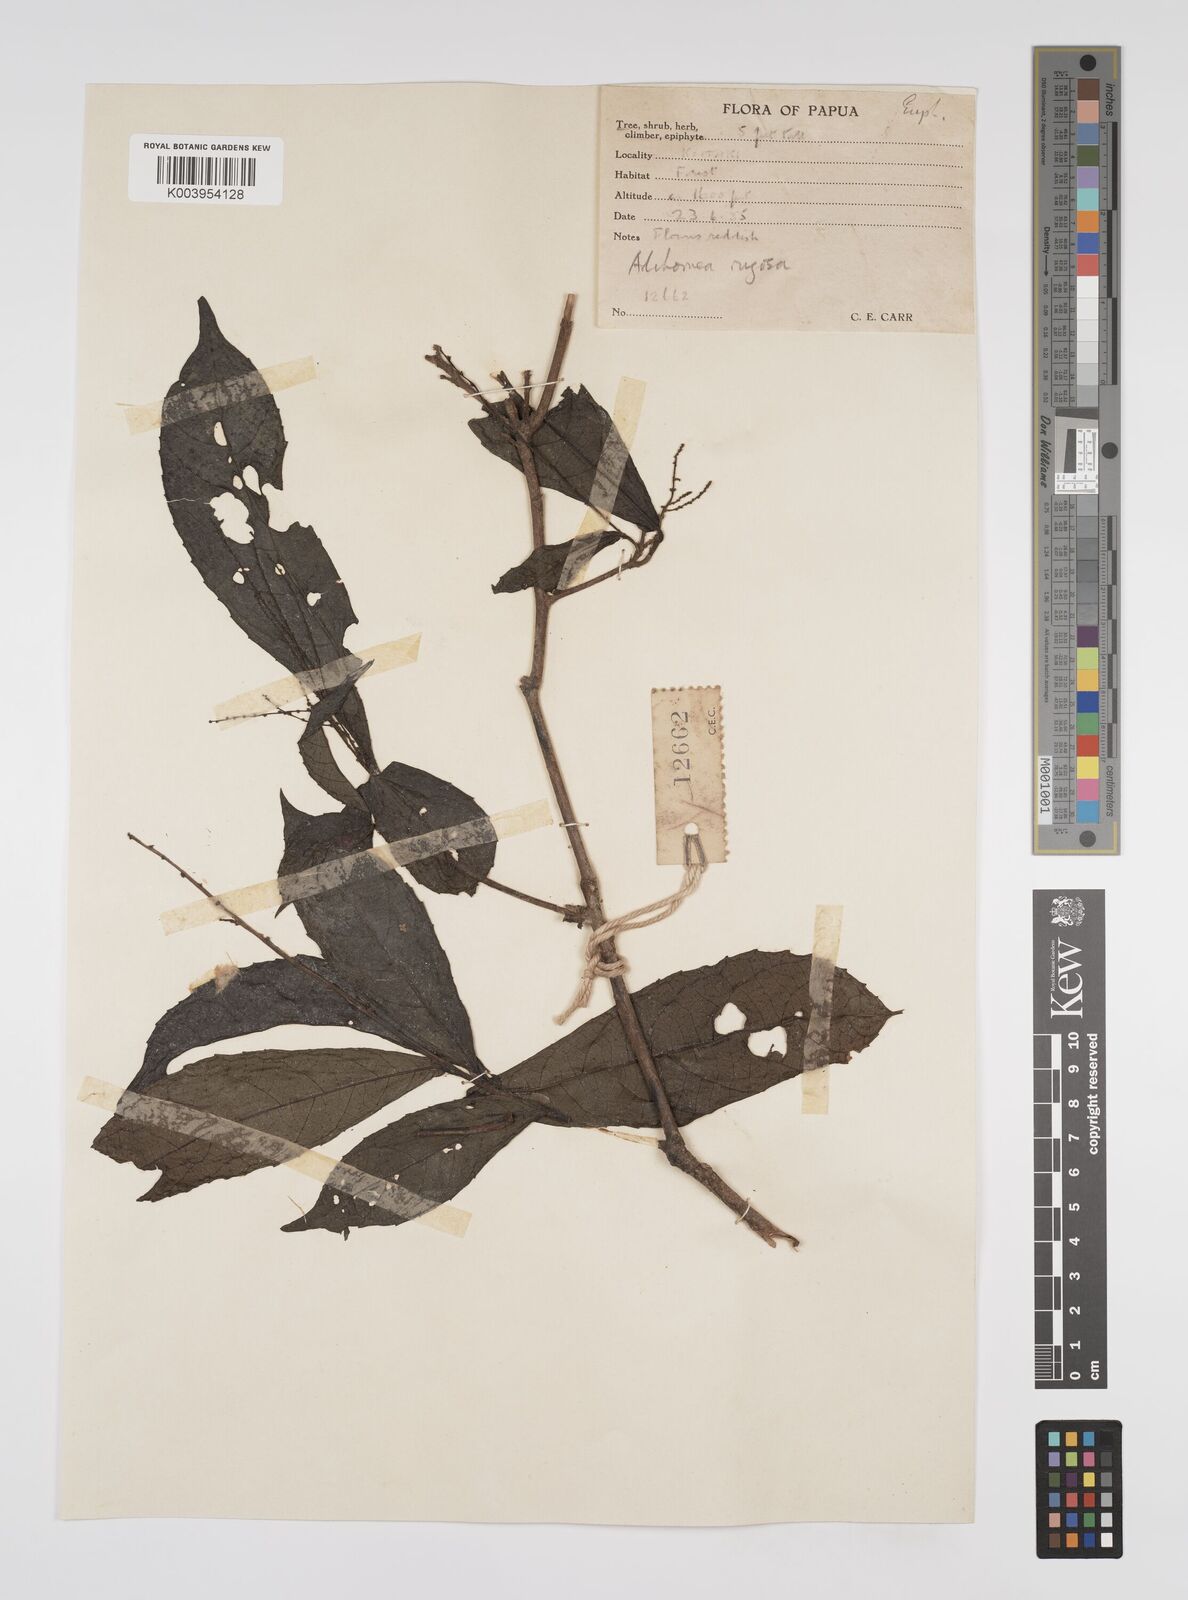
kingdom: Plantae
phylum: Tracheophyta
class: Magnoliopsida
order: Malpighiales
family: Euphorbiaceae
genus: Alchornea
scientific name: Alchornea rugosa
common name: Alchorntree
